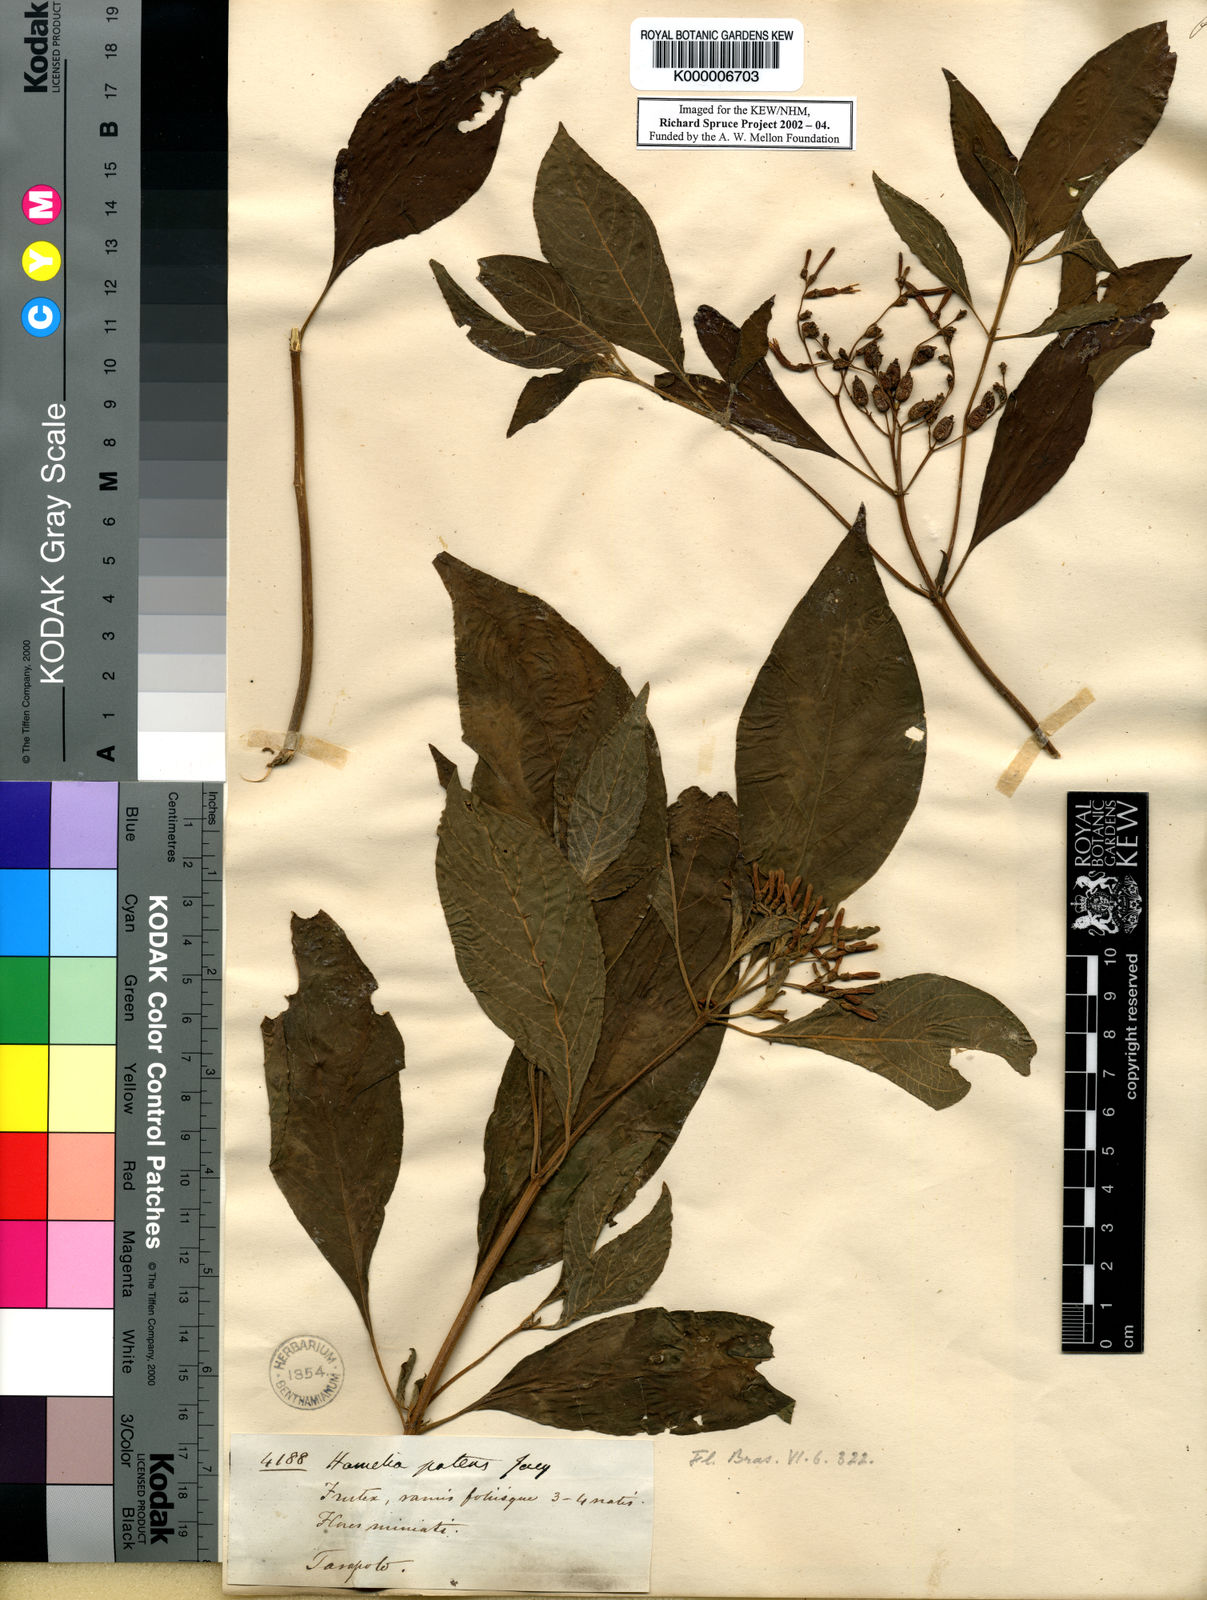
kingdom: Plantae
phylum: Tracheophyta
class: Magnoliopsida
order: Gentianales
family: Rubiaceae
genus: Hamelia
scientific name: Hamelia patens
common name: Redhead
